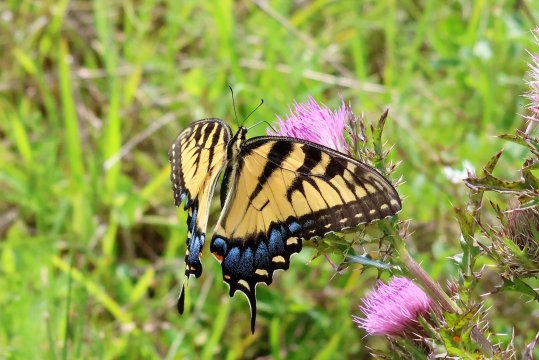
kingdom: Animalia
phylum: Arthropoda
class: Insecta
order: Lepidoptera
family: Papilionidae
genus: Pterourus
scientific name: Pterourus glaucus
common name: Eastern Tiger Swallowtail
